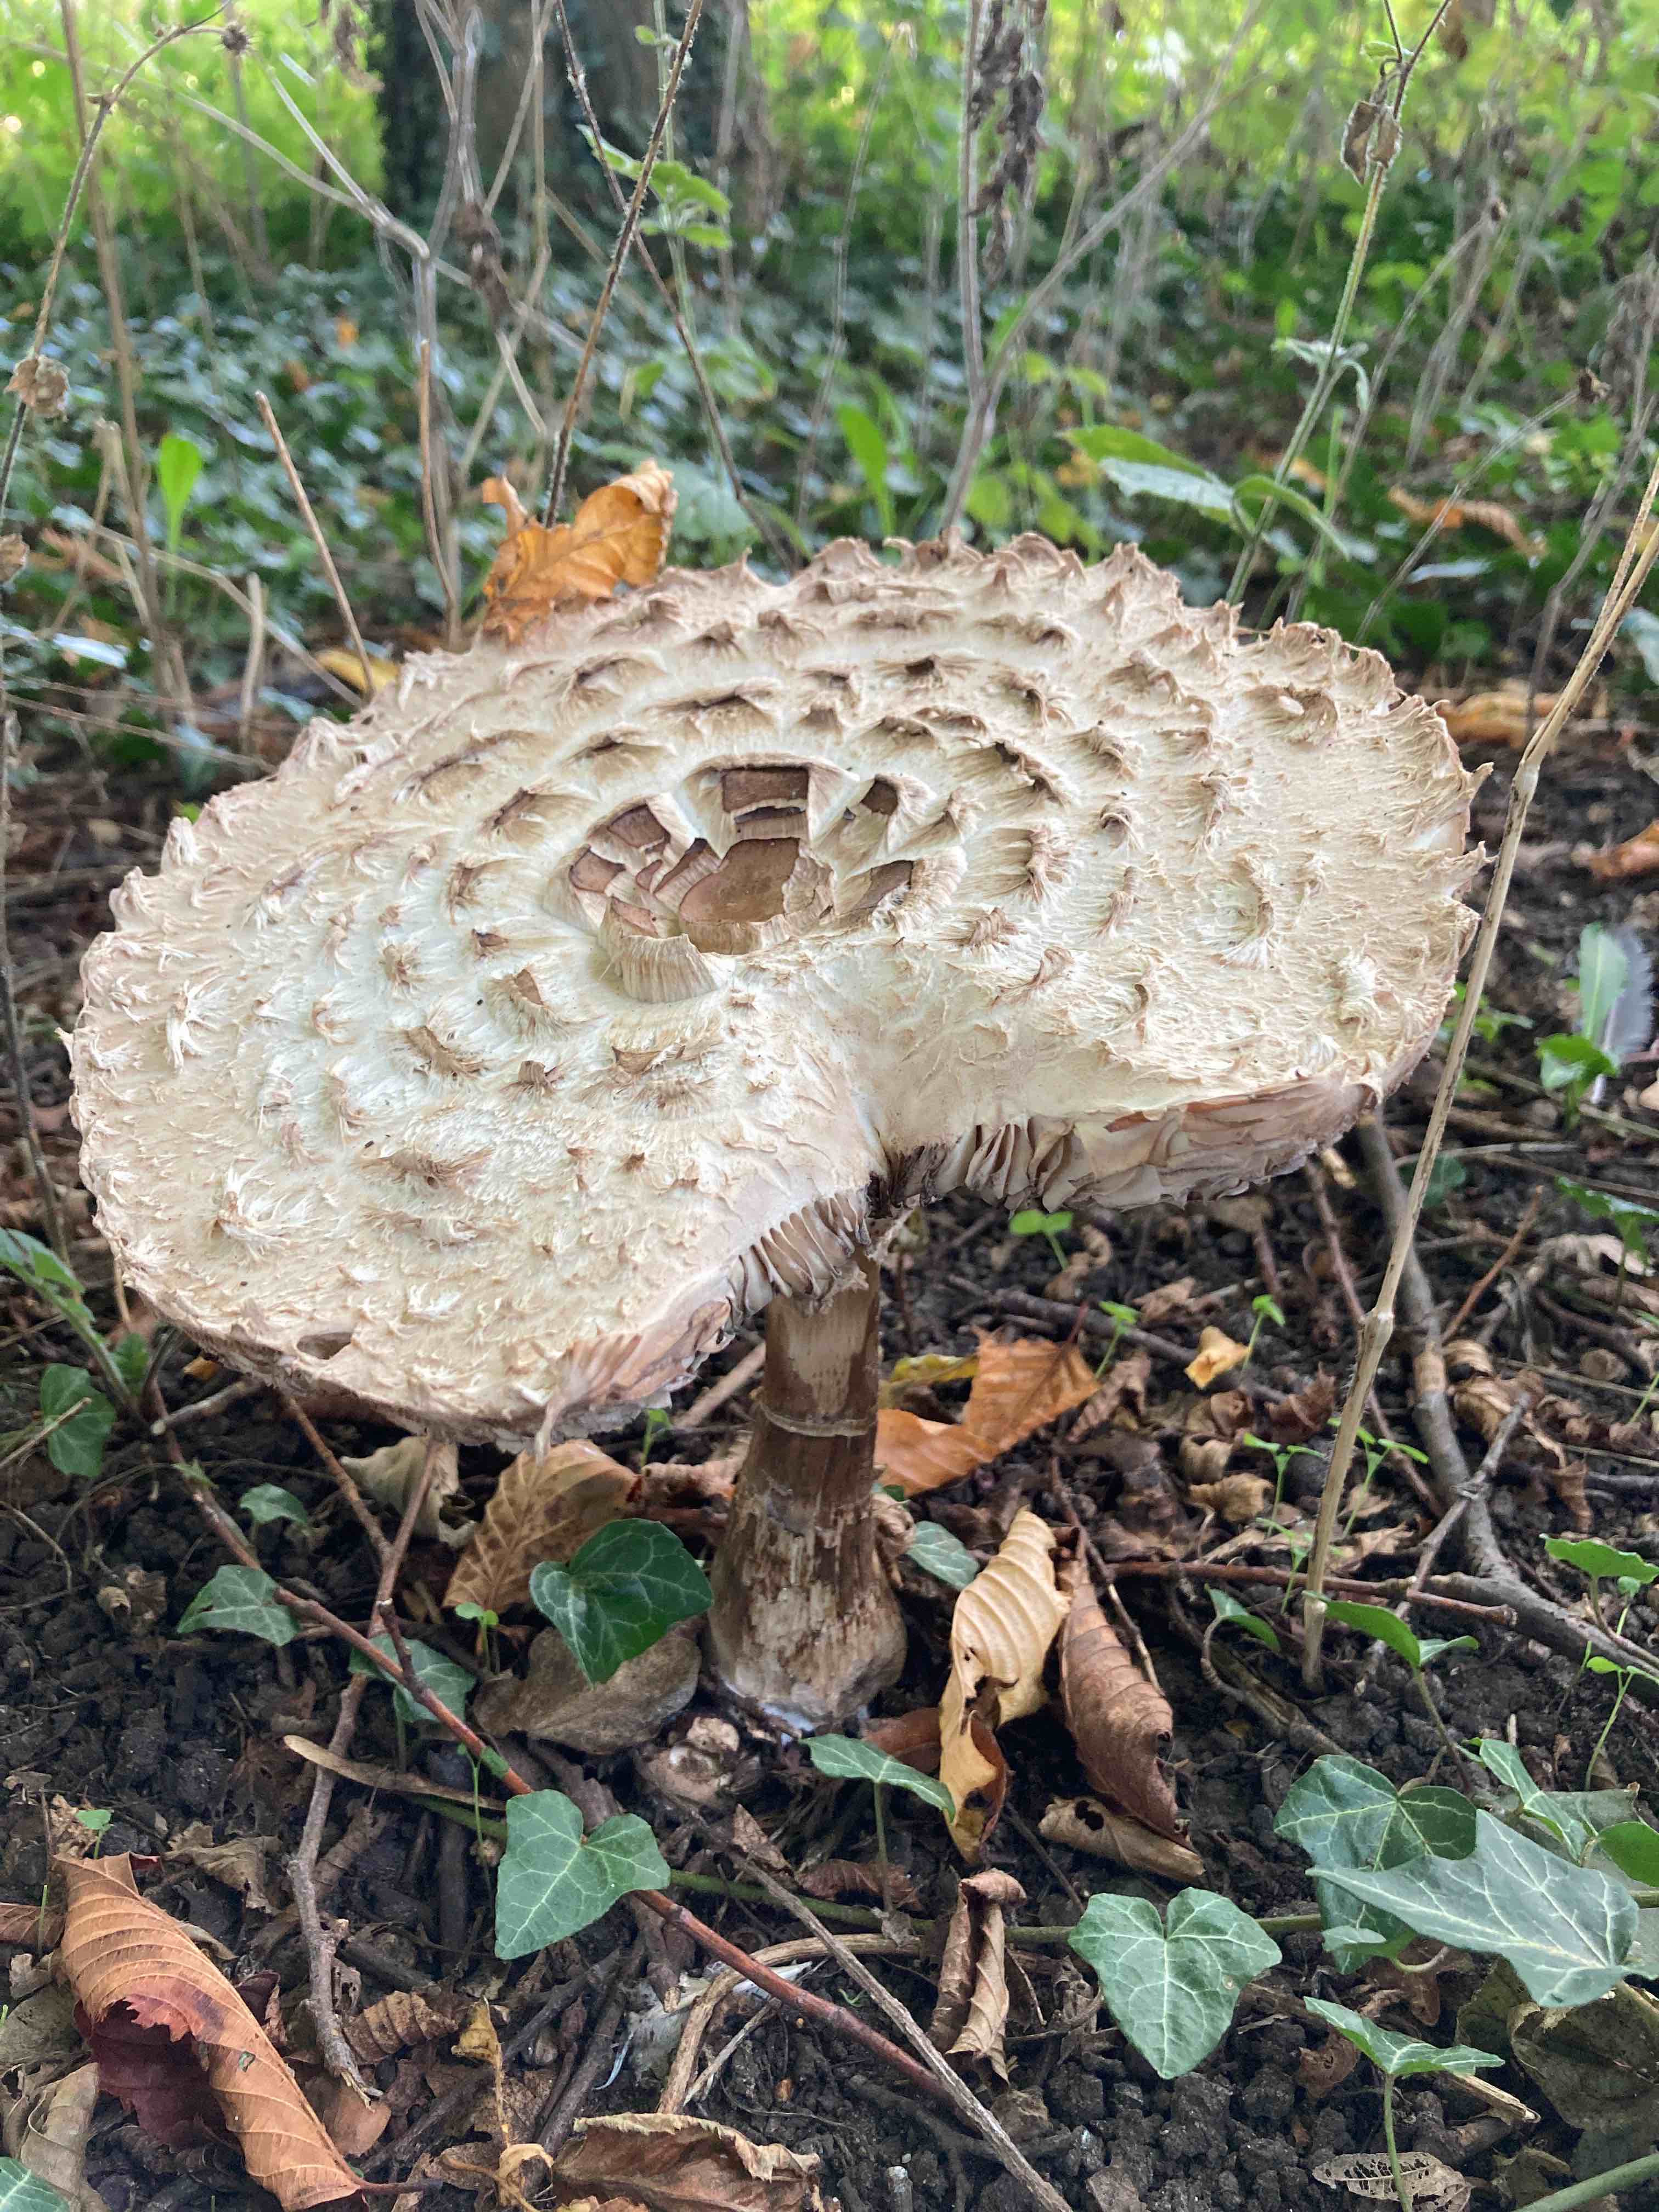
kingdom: Fungi
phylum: Basidiomycota
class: Agaricomycetes
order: Agaricales
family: Agaricaceae
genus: Chlorophyllum
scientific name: Chlorophyllum rhacodes
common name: ægte rabarberhat
